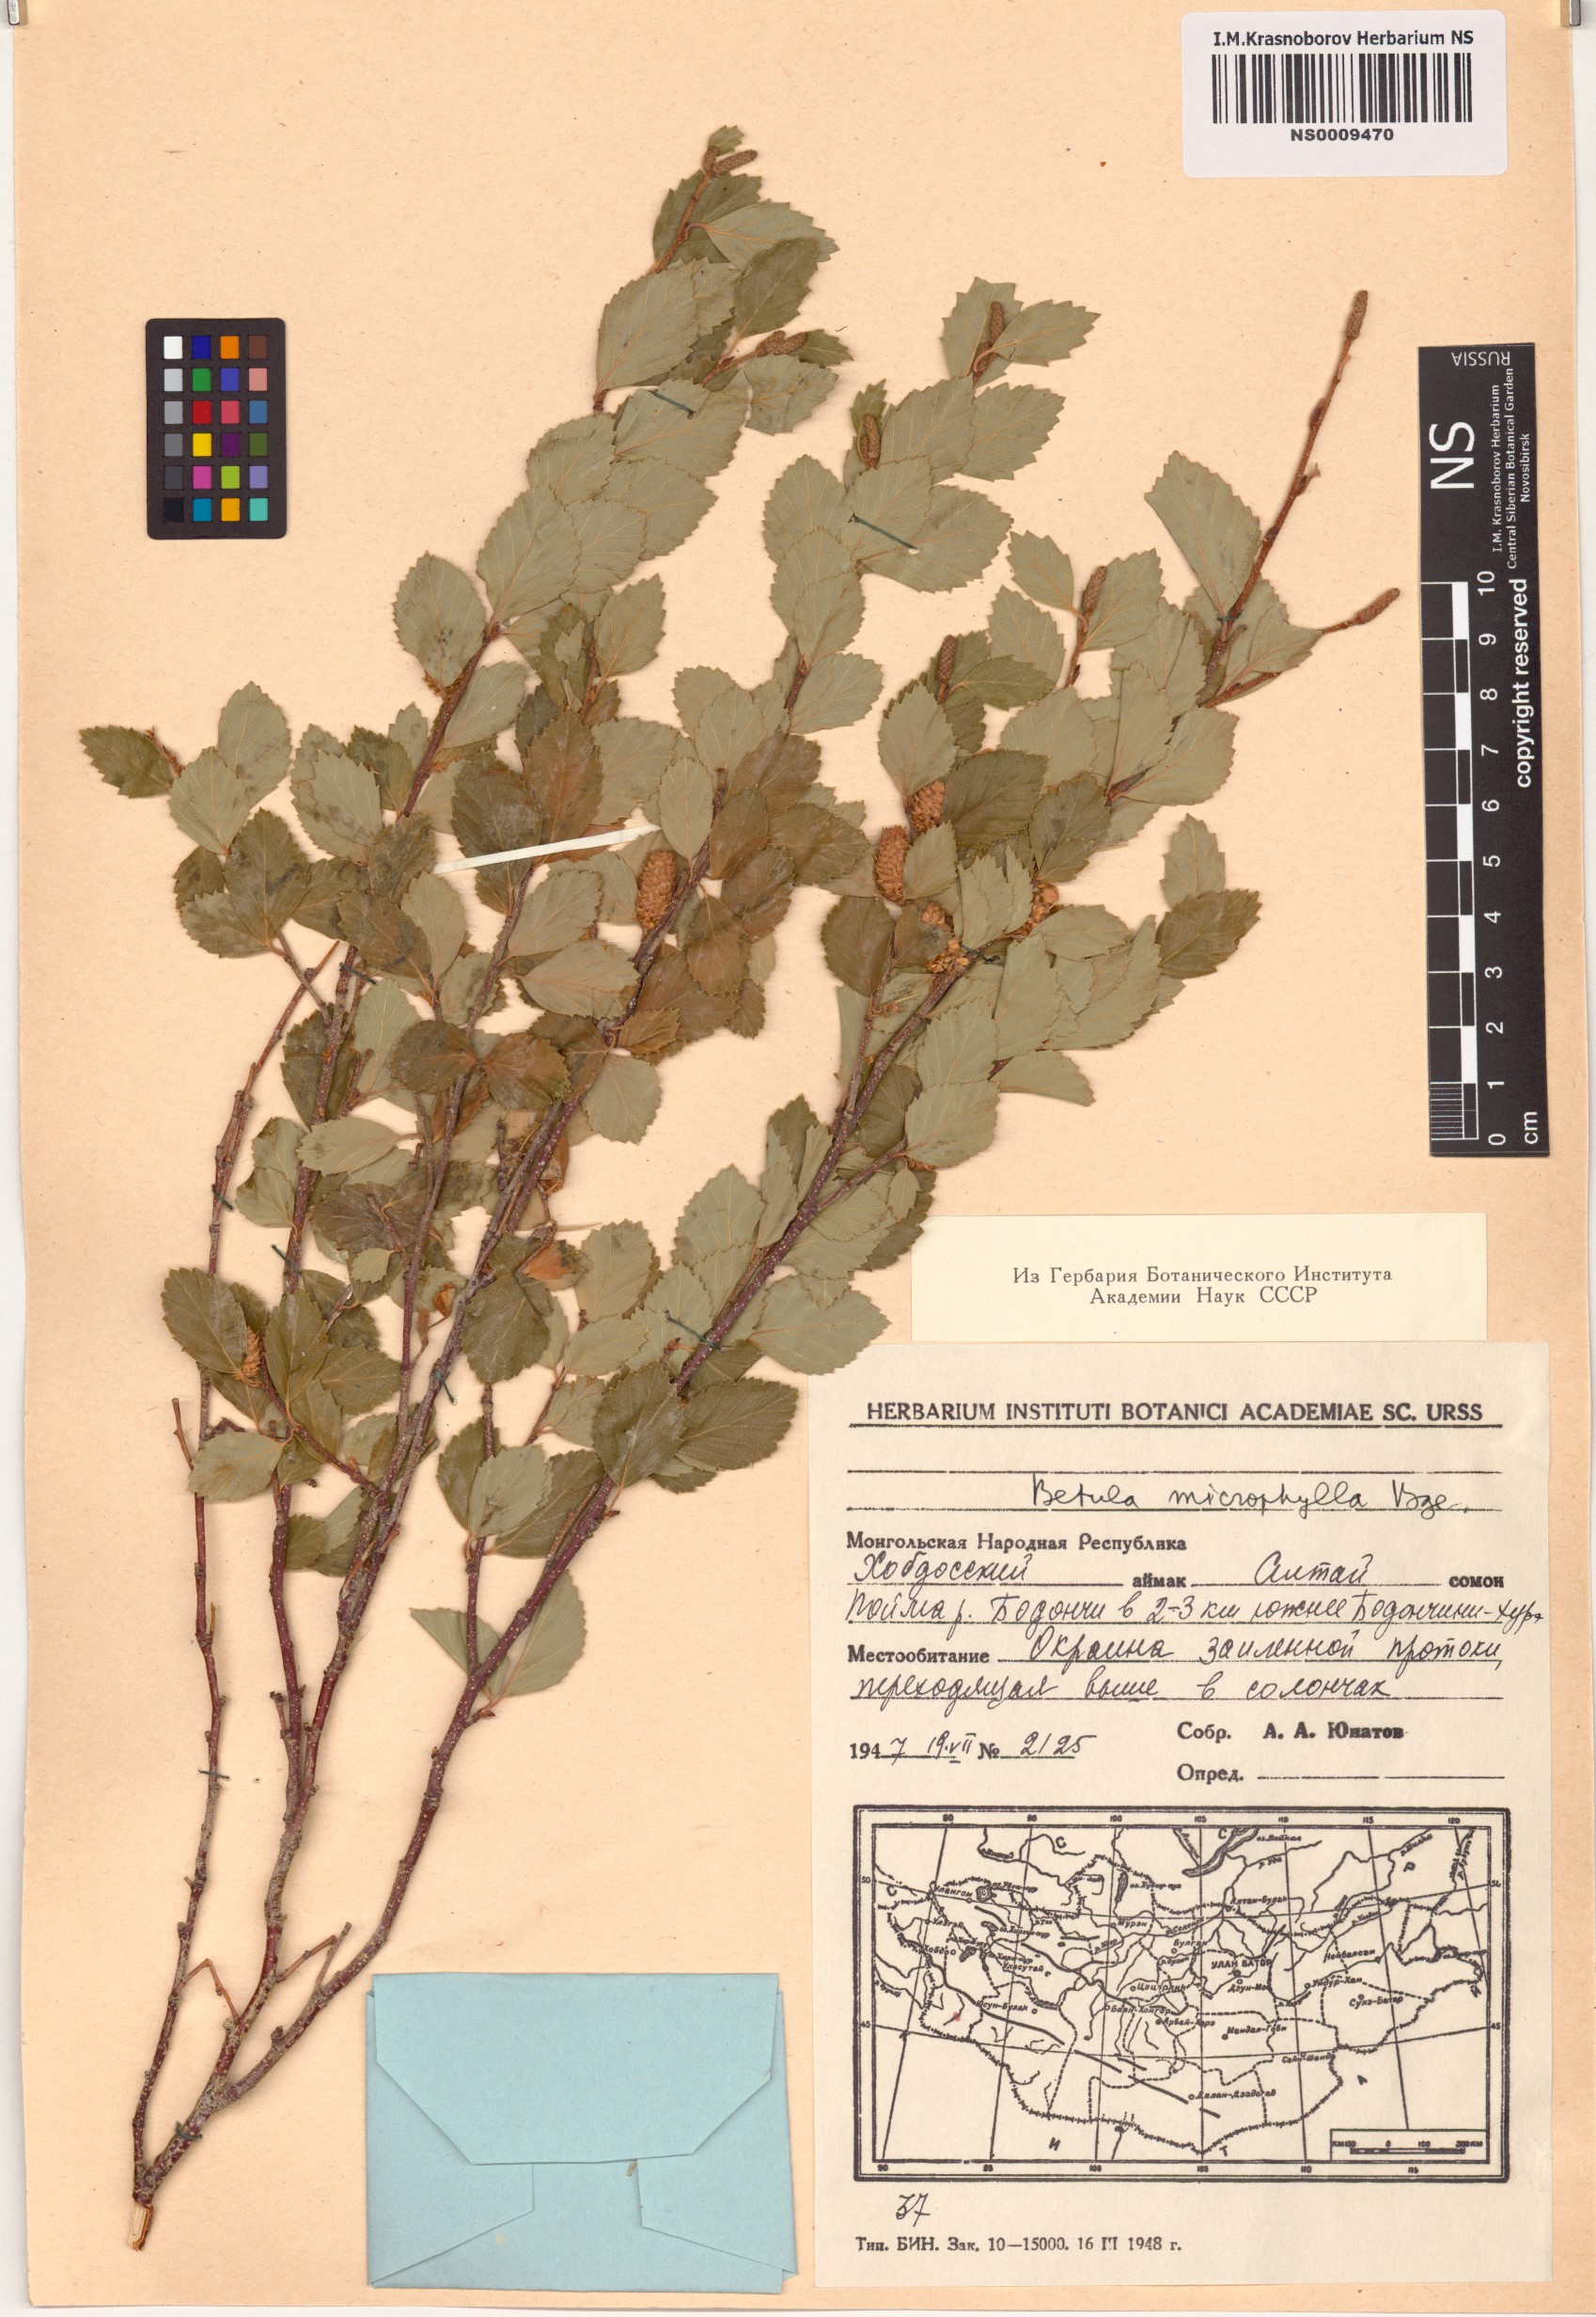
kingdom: Plantae
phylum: Tracheophyta
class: Magnoliopsida
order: Fagales
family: Betulaceae
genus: Betula
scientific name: Betula microphylla
